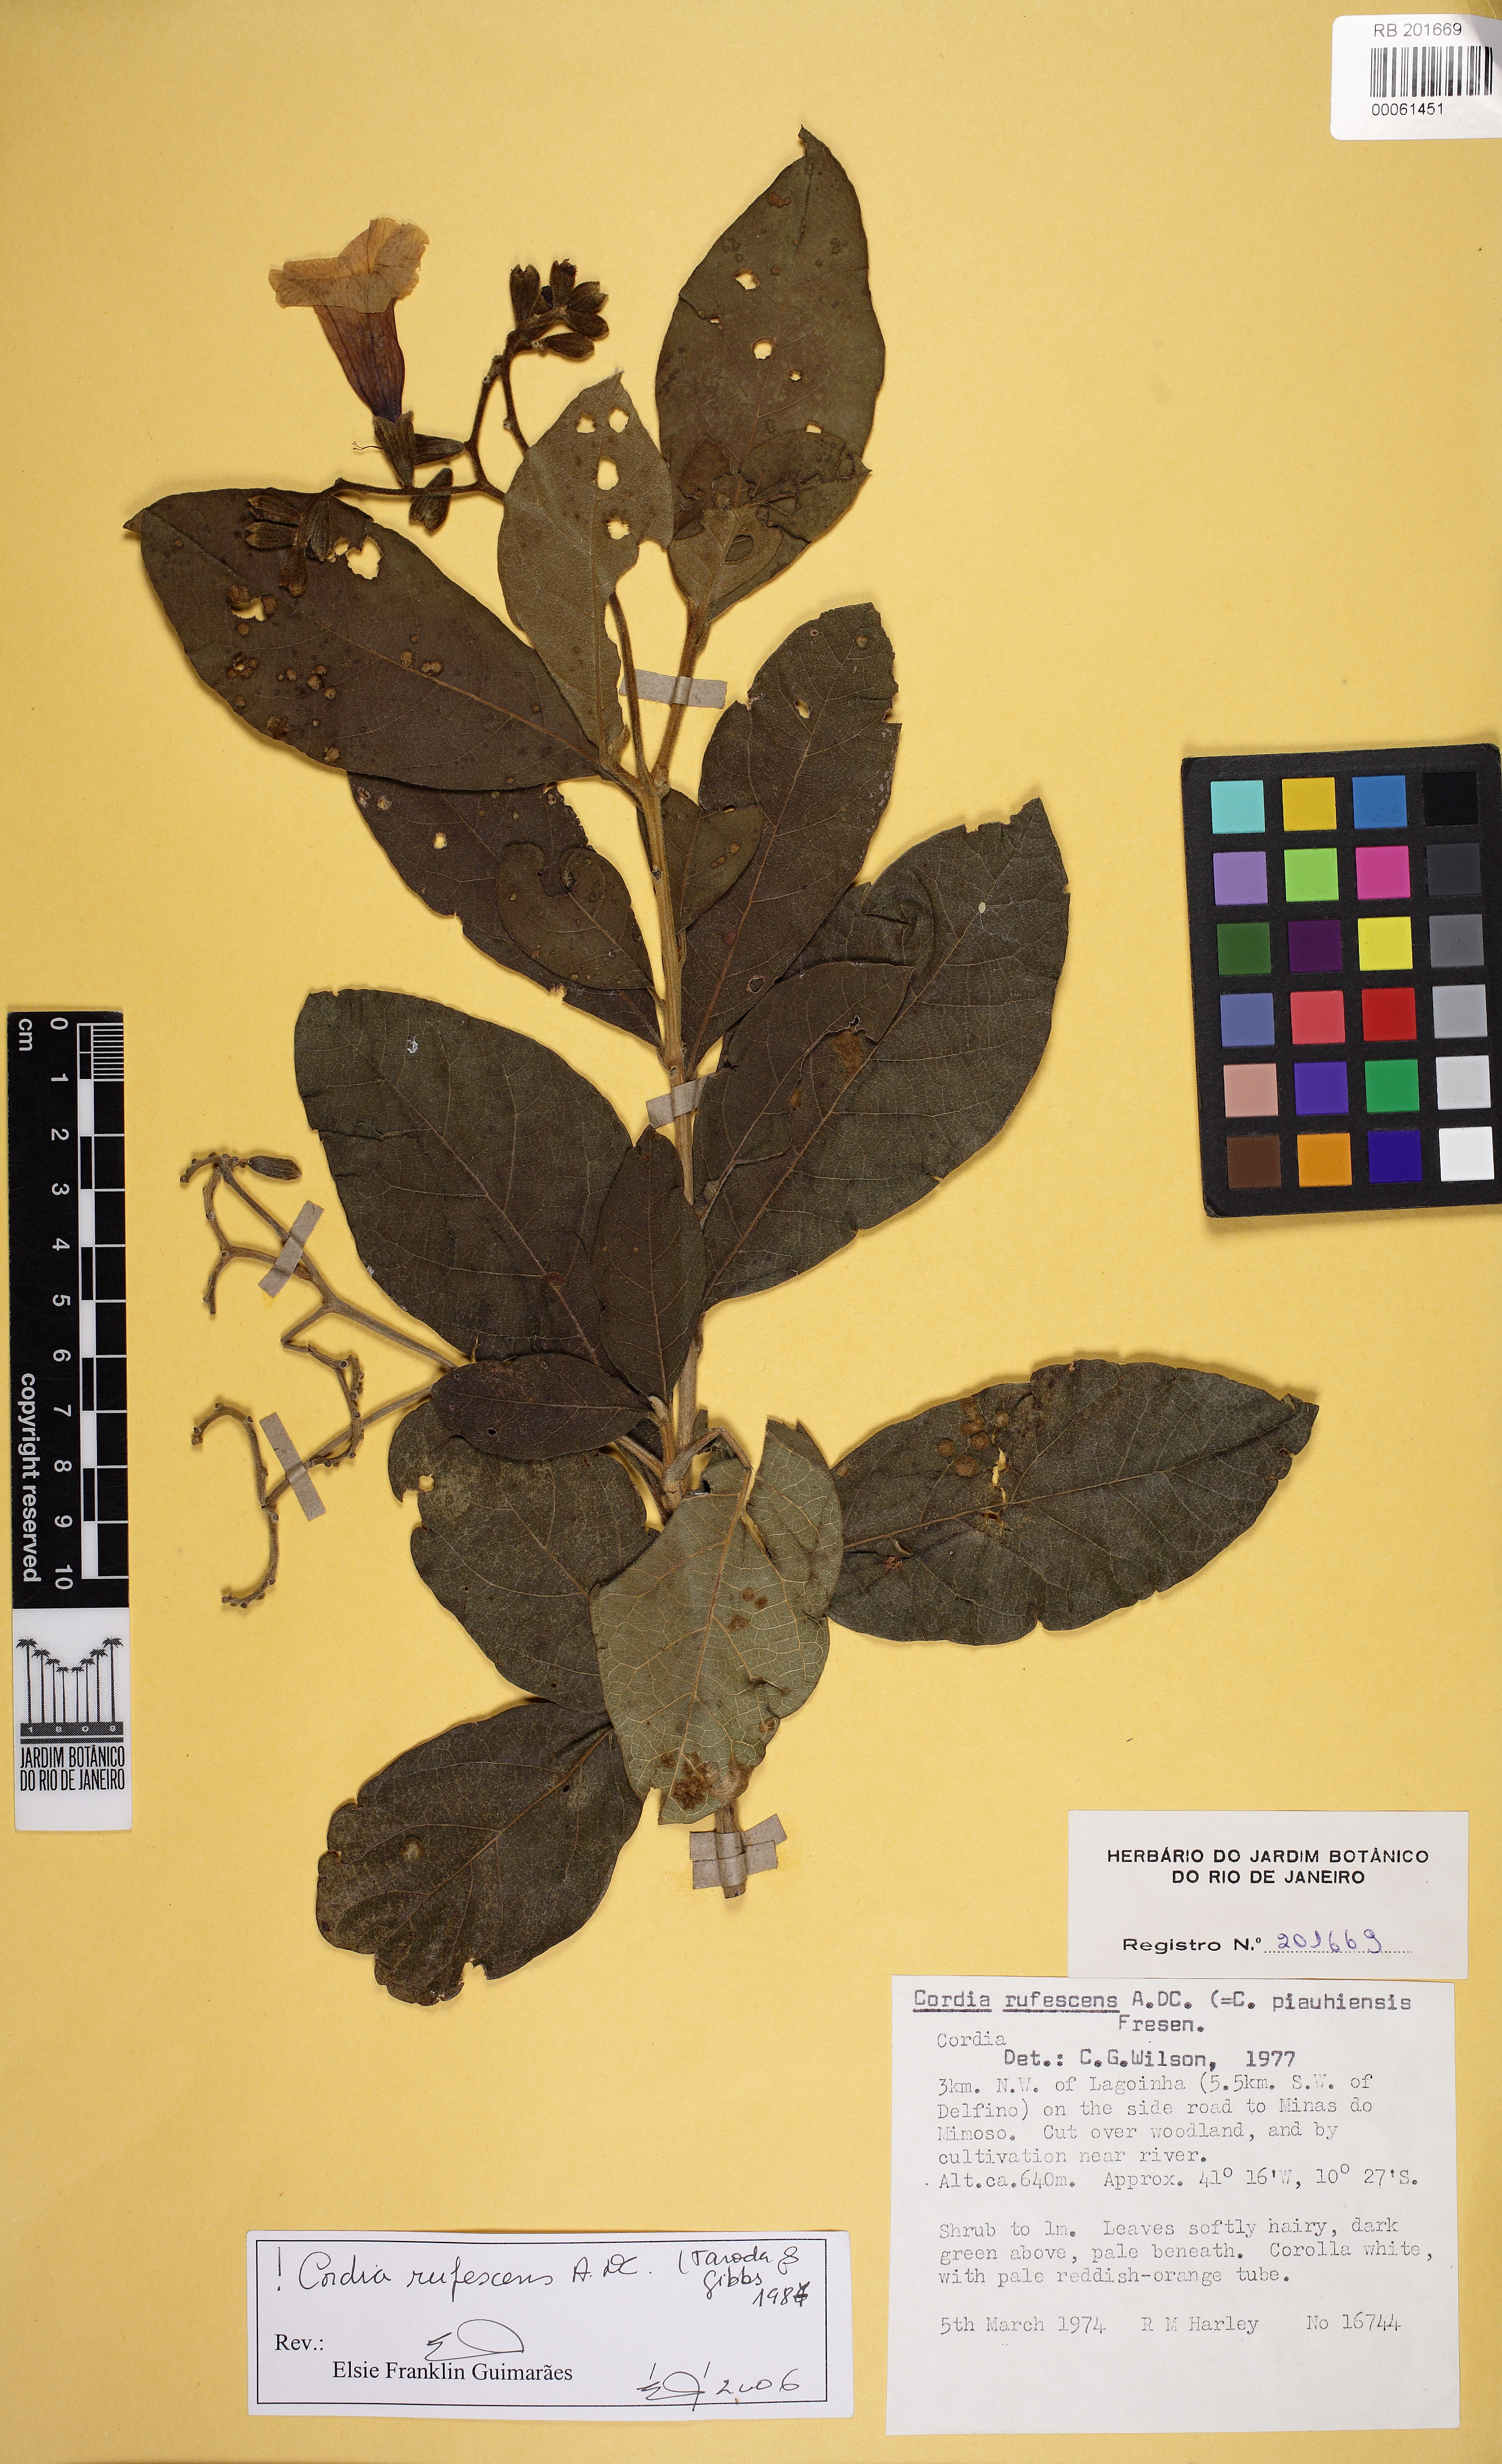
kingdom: Plantae
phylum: Tracheophyta
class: Magnoliopsida
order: Boraginales
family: Cordiaceae
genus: Cordia
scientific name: Cordia rufescens
